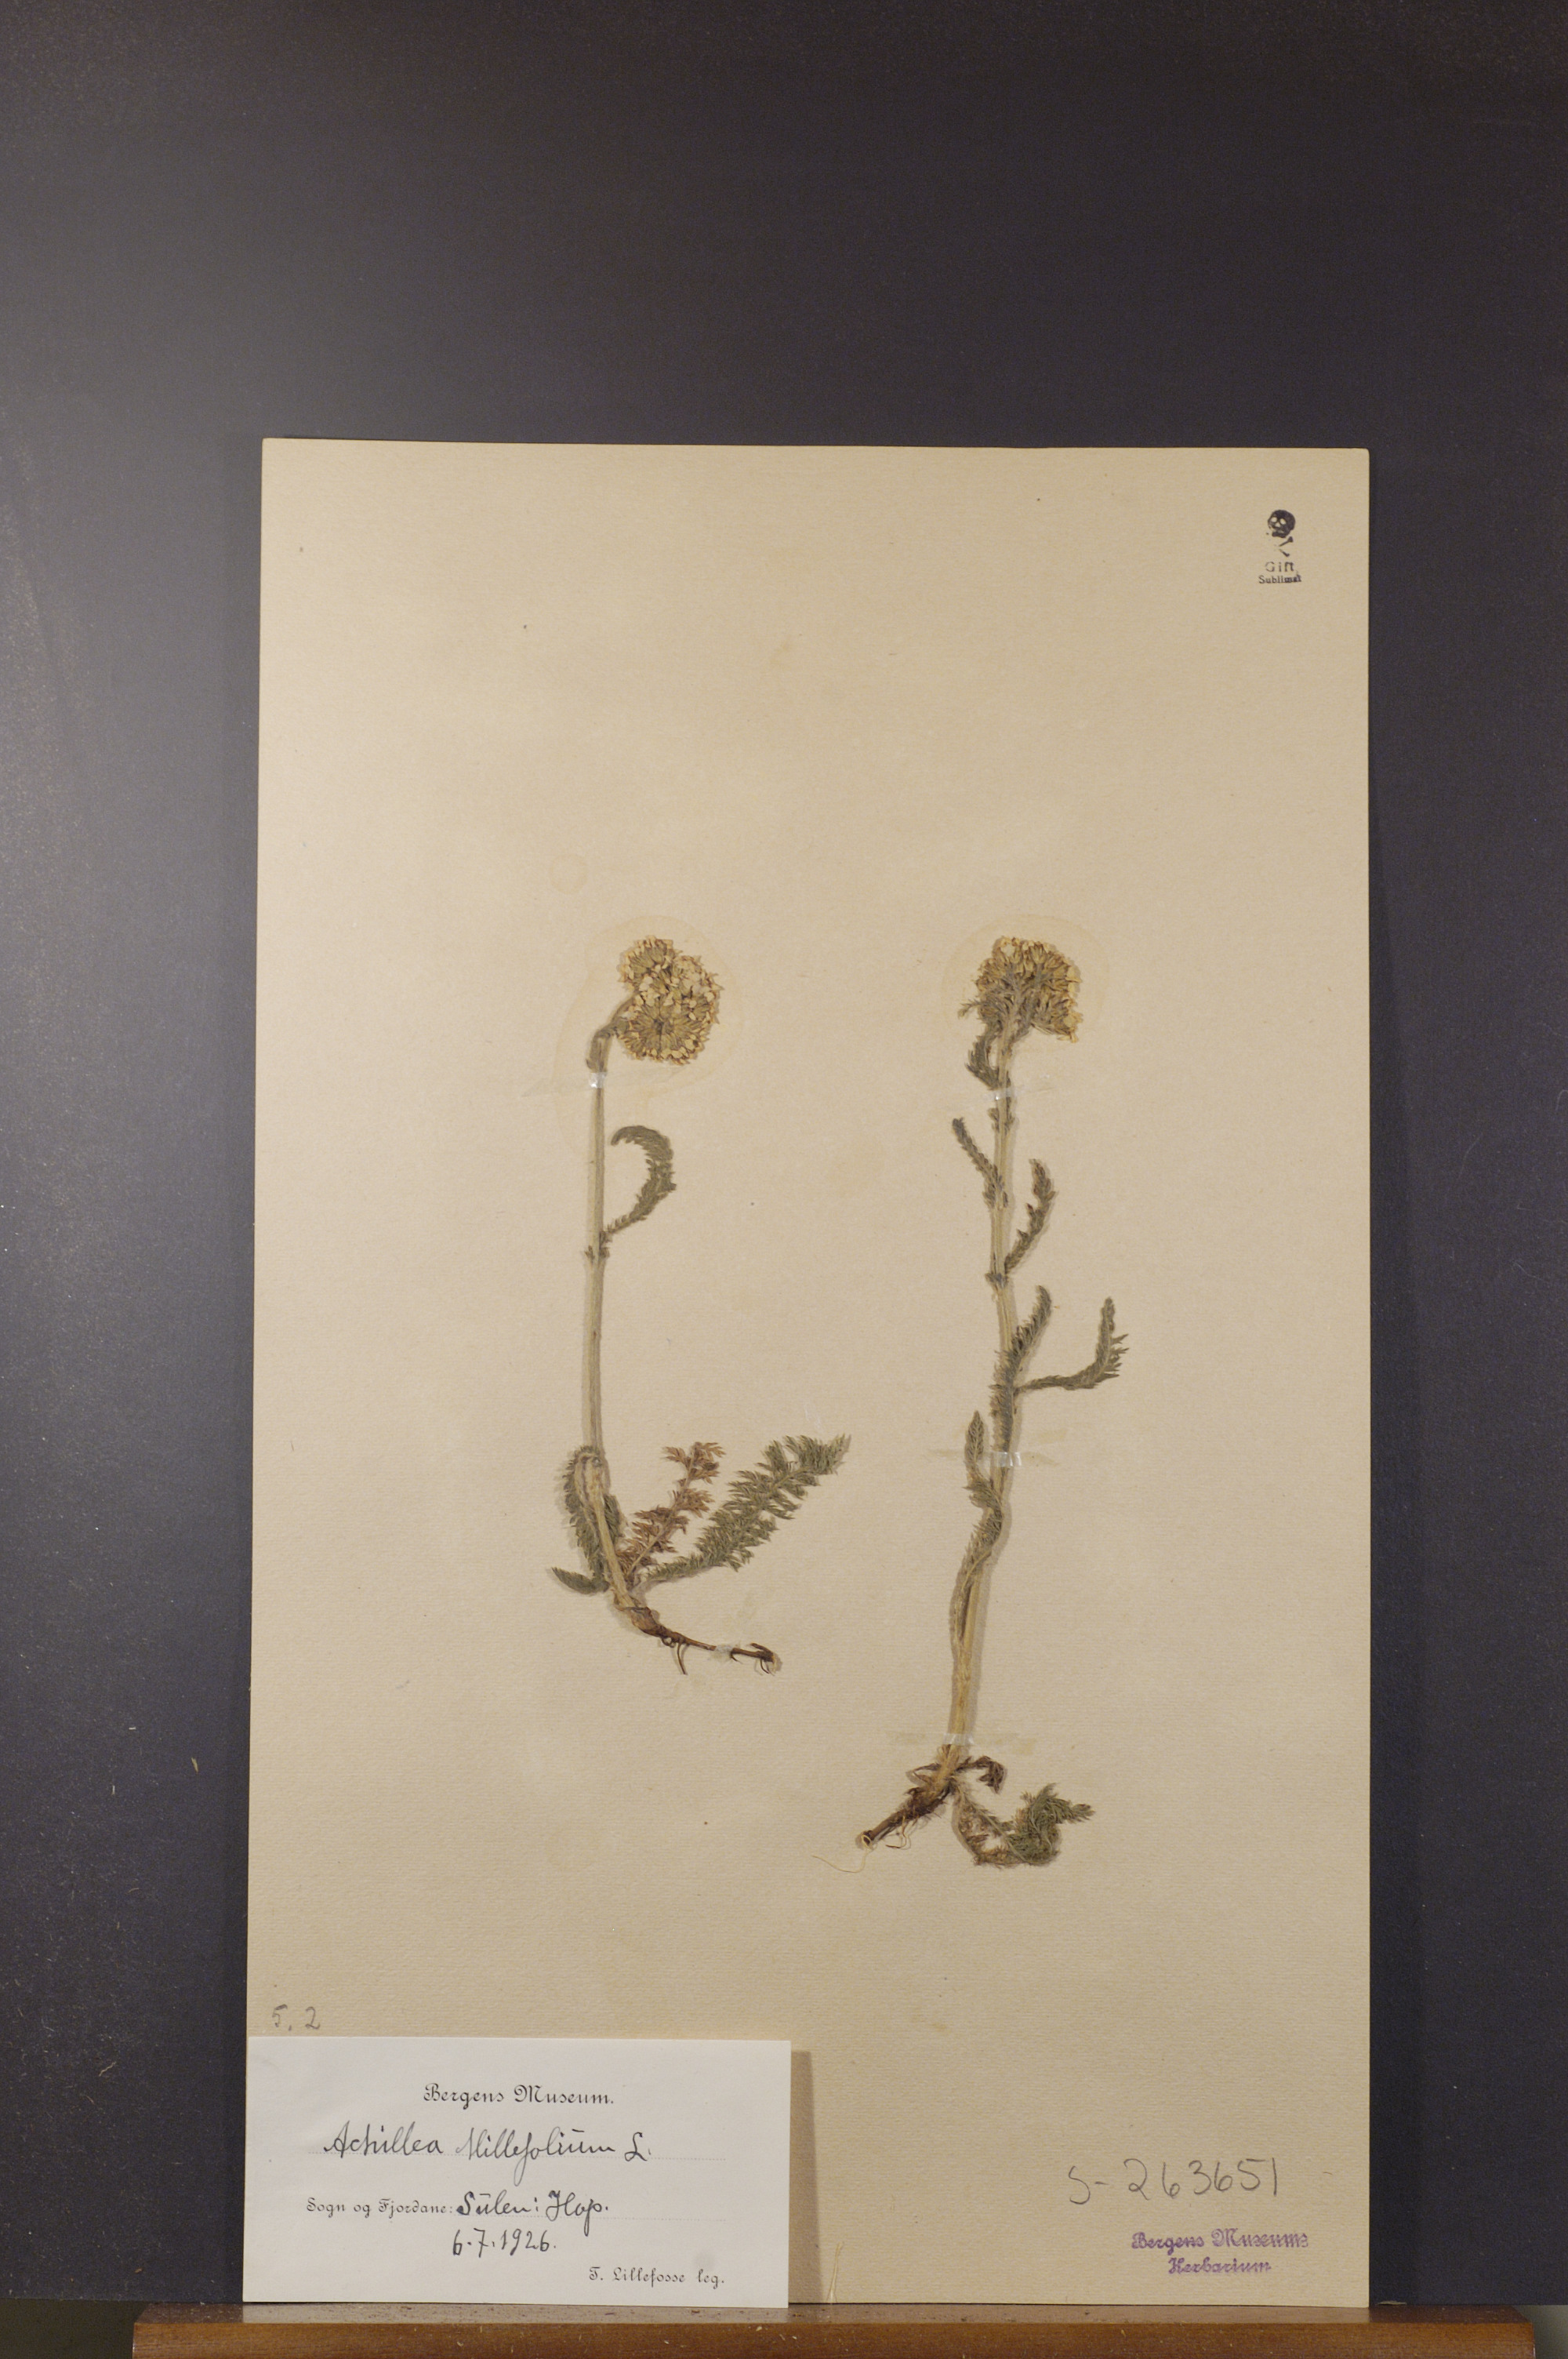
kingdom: Plantae
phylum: Tracheophyta
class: Magnoliopsida
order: Asterales
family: Asteraceae
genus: Achillea
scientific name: Achillea millefolium
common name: Yarrow
